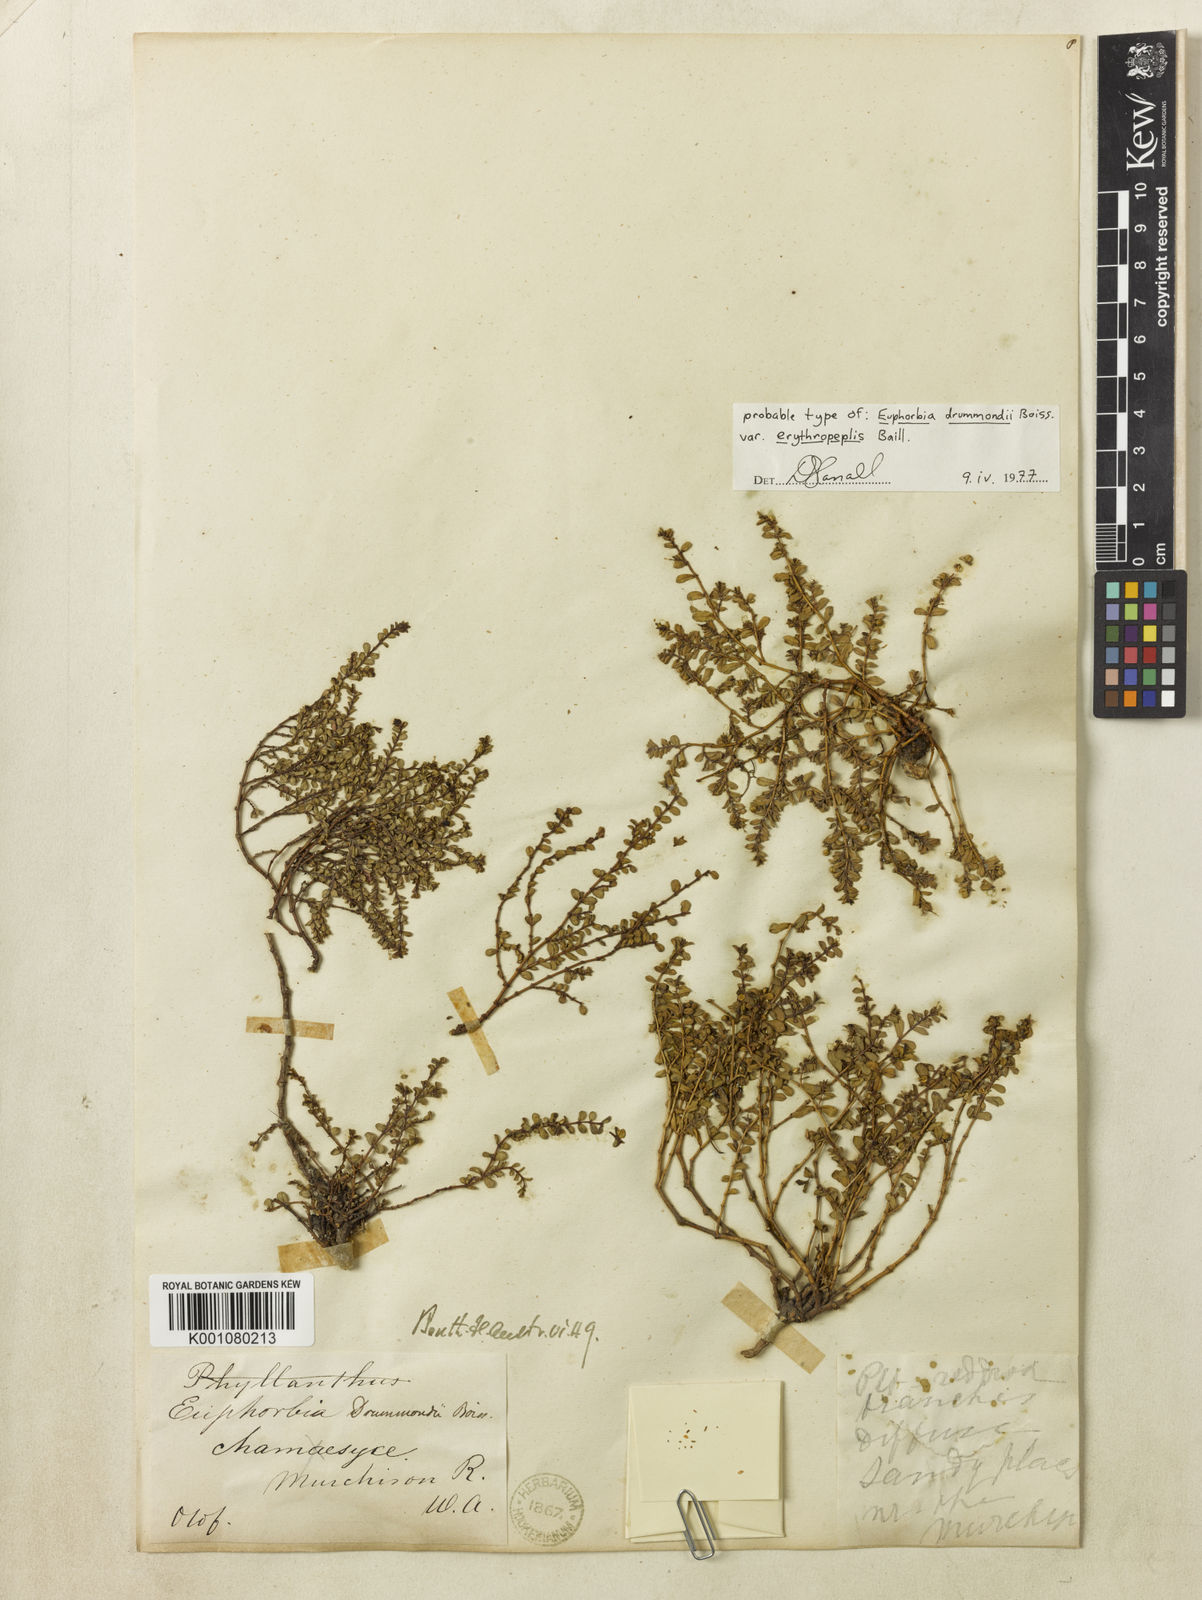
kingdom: Plantae
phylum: Tracheophyta
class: Magnoliopsida
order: Malpighiales
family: Euphorbiaceae
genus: Euphorbia
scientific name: Euphorbia drummondii
